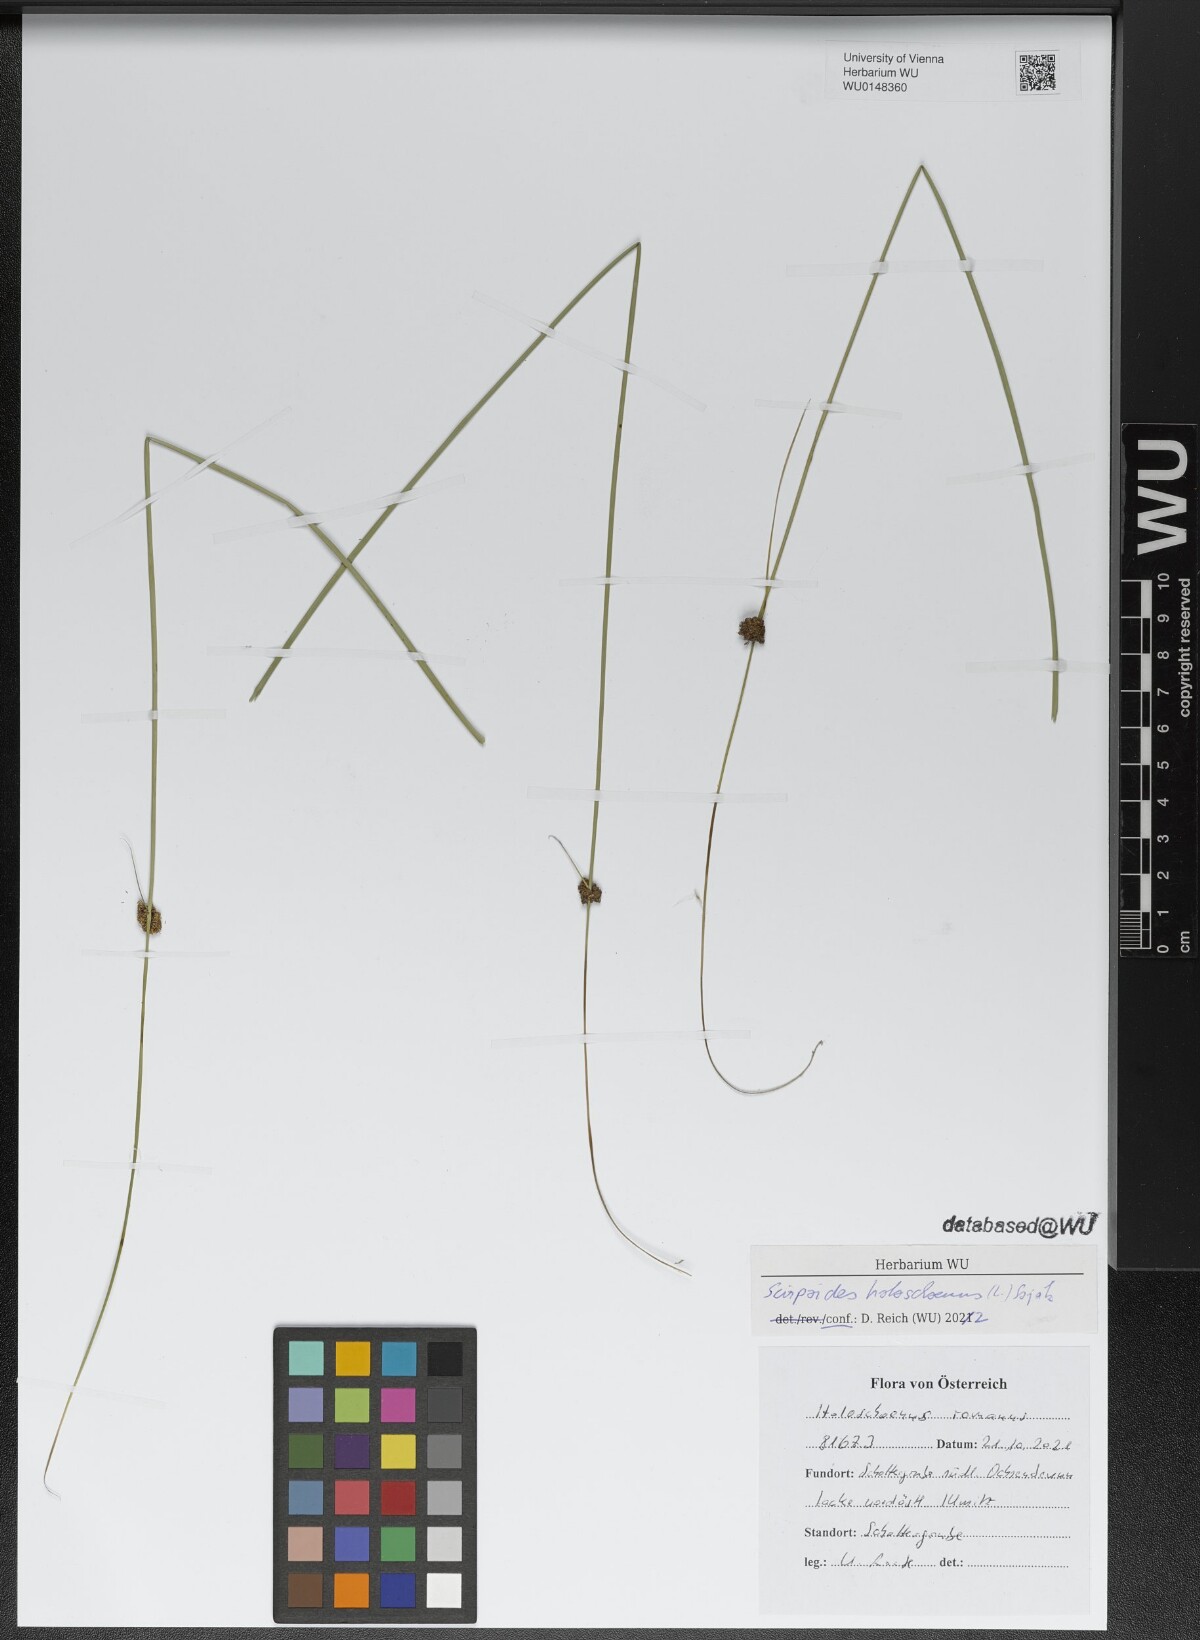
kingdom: Plantae
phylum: Tracheophyta
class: Liliopsida
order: Poales
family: Cyperaceae
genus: Scirpoides
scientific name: Scirpoides holoschoenus
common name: Round-headed club-rush
